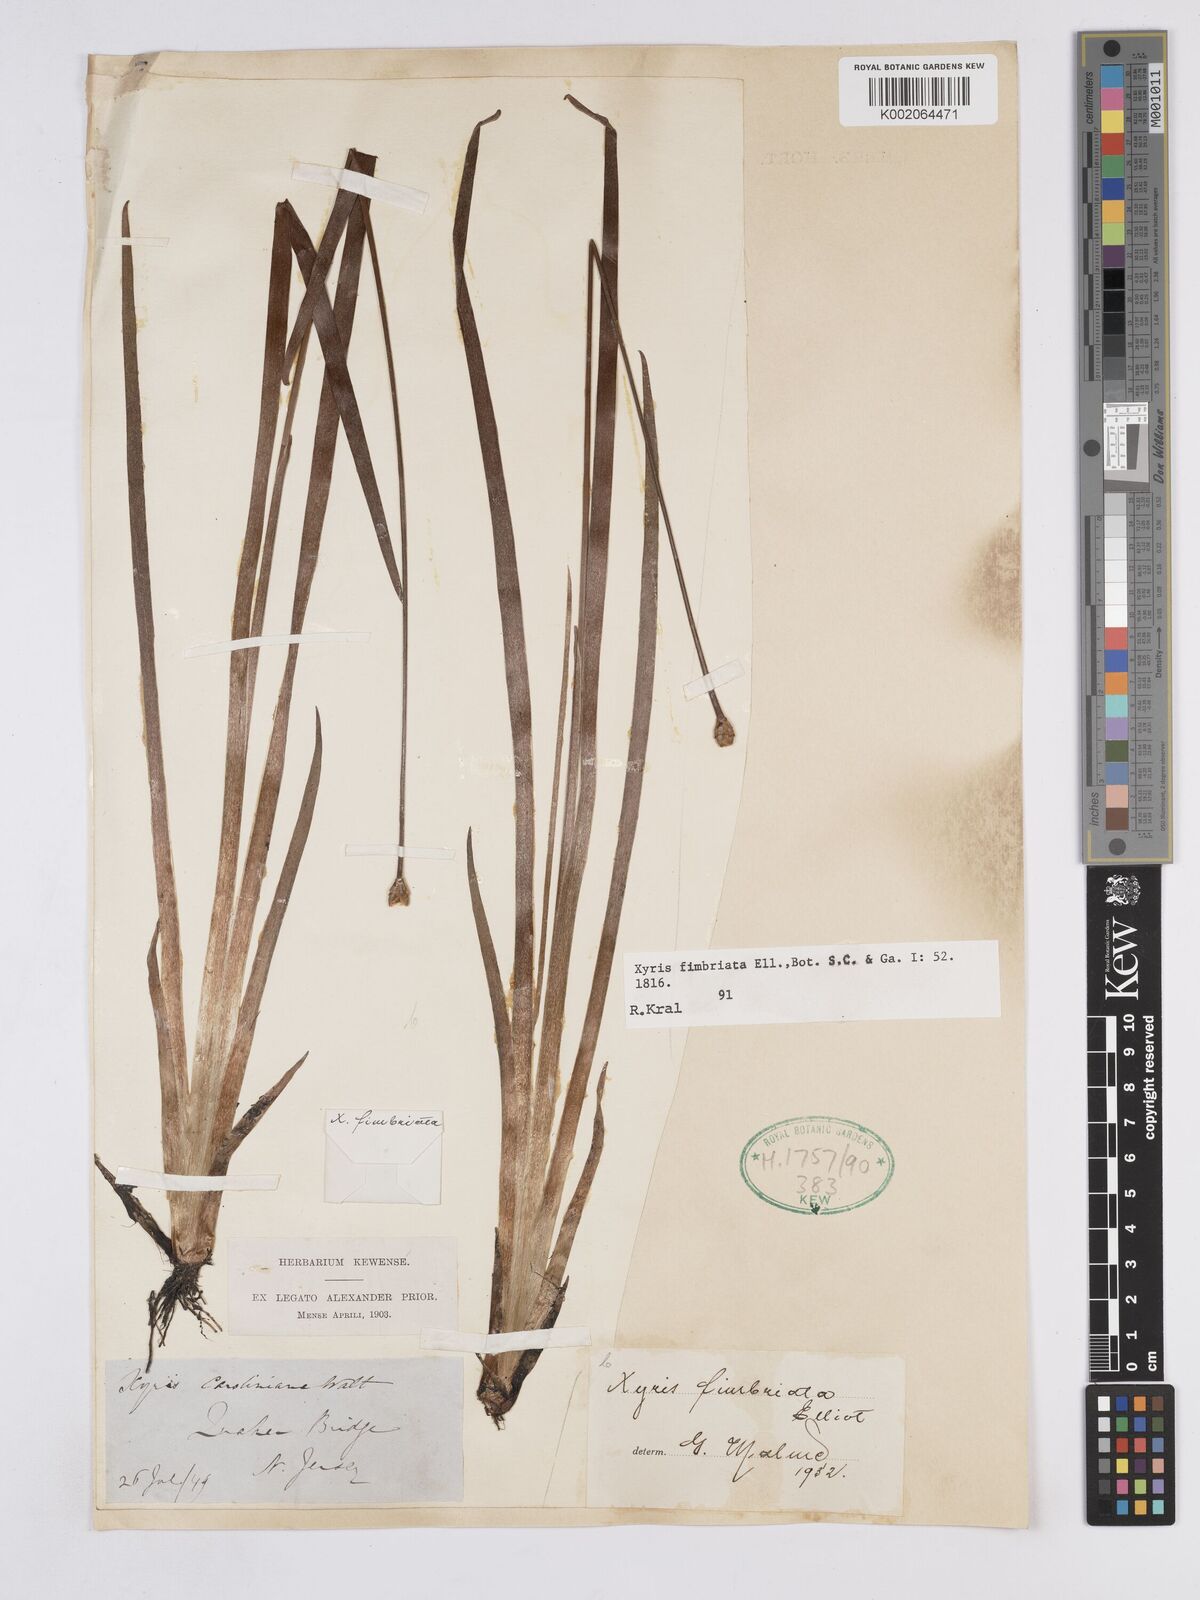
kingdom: Plantae
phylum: Tracheophyta
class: Liliopsida
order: Poales
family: Xyridaceae
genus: Xyris
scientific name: Xyris fimbriata
